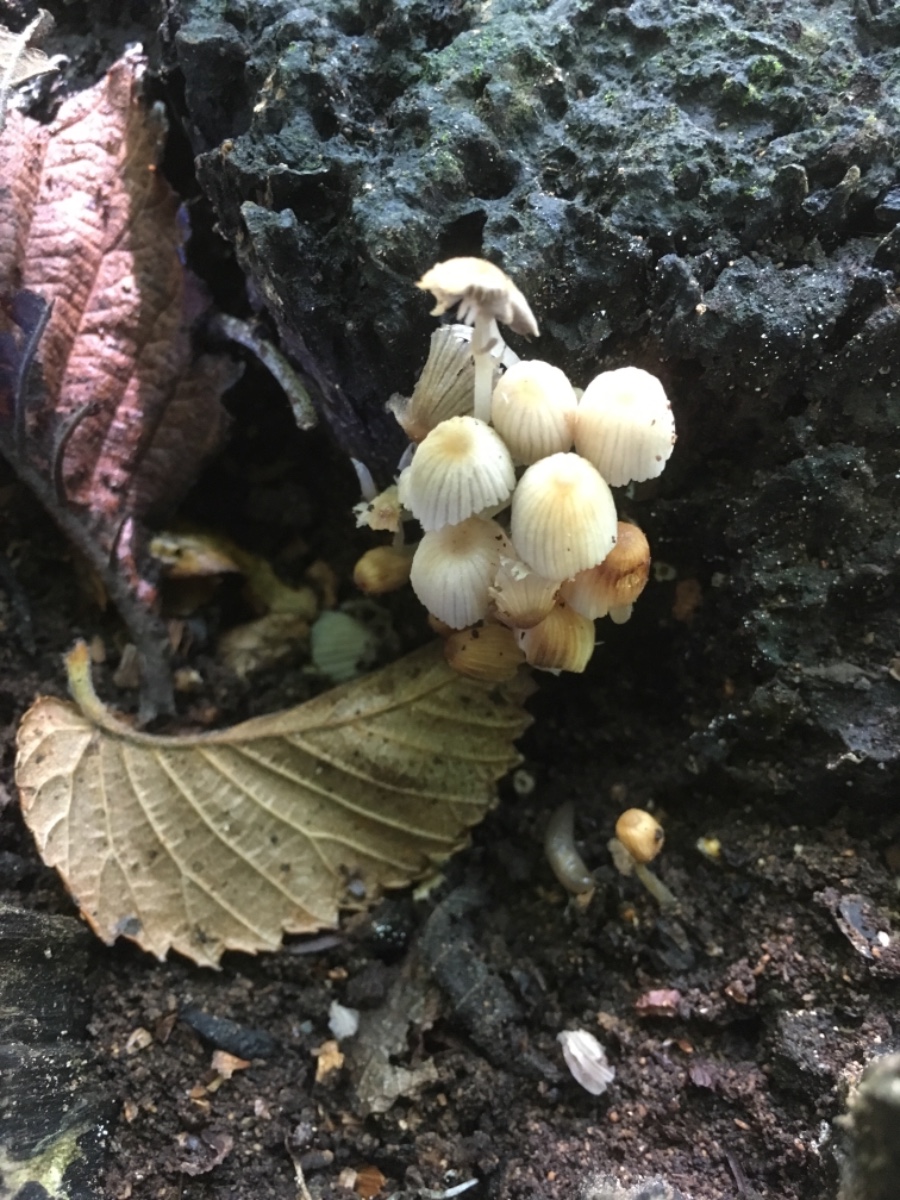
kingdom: Fungi
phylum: Basidiomycota
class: Agaricomycetes
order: Agaricales
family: Psathyrellaceae
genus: Coprinellus
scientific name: Coprinellus disseminatus
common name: bredsået blækhat
